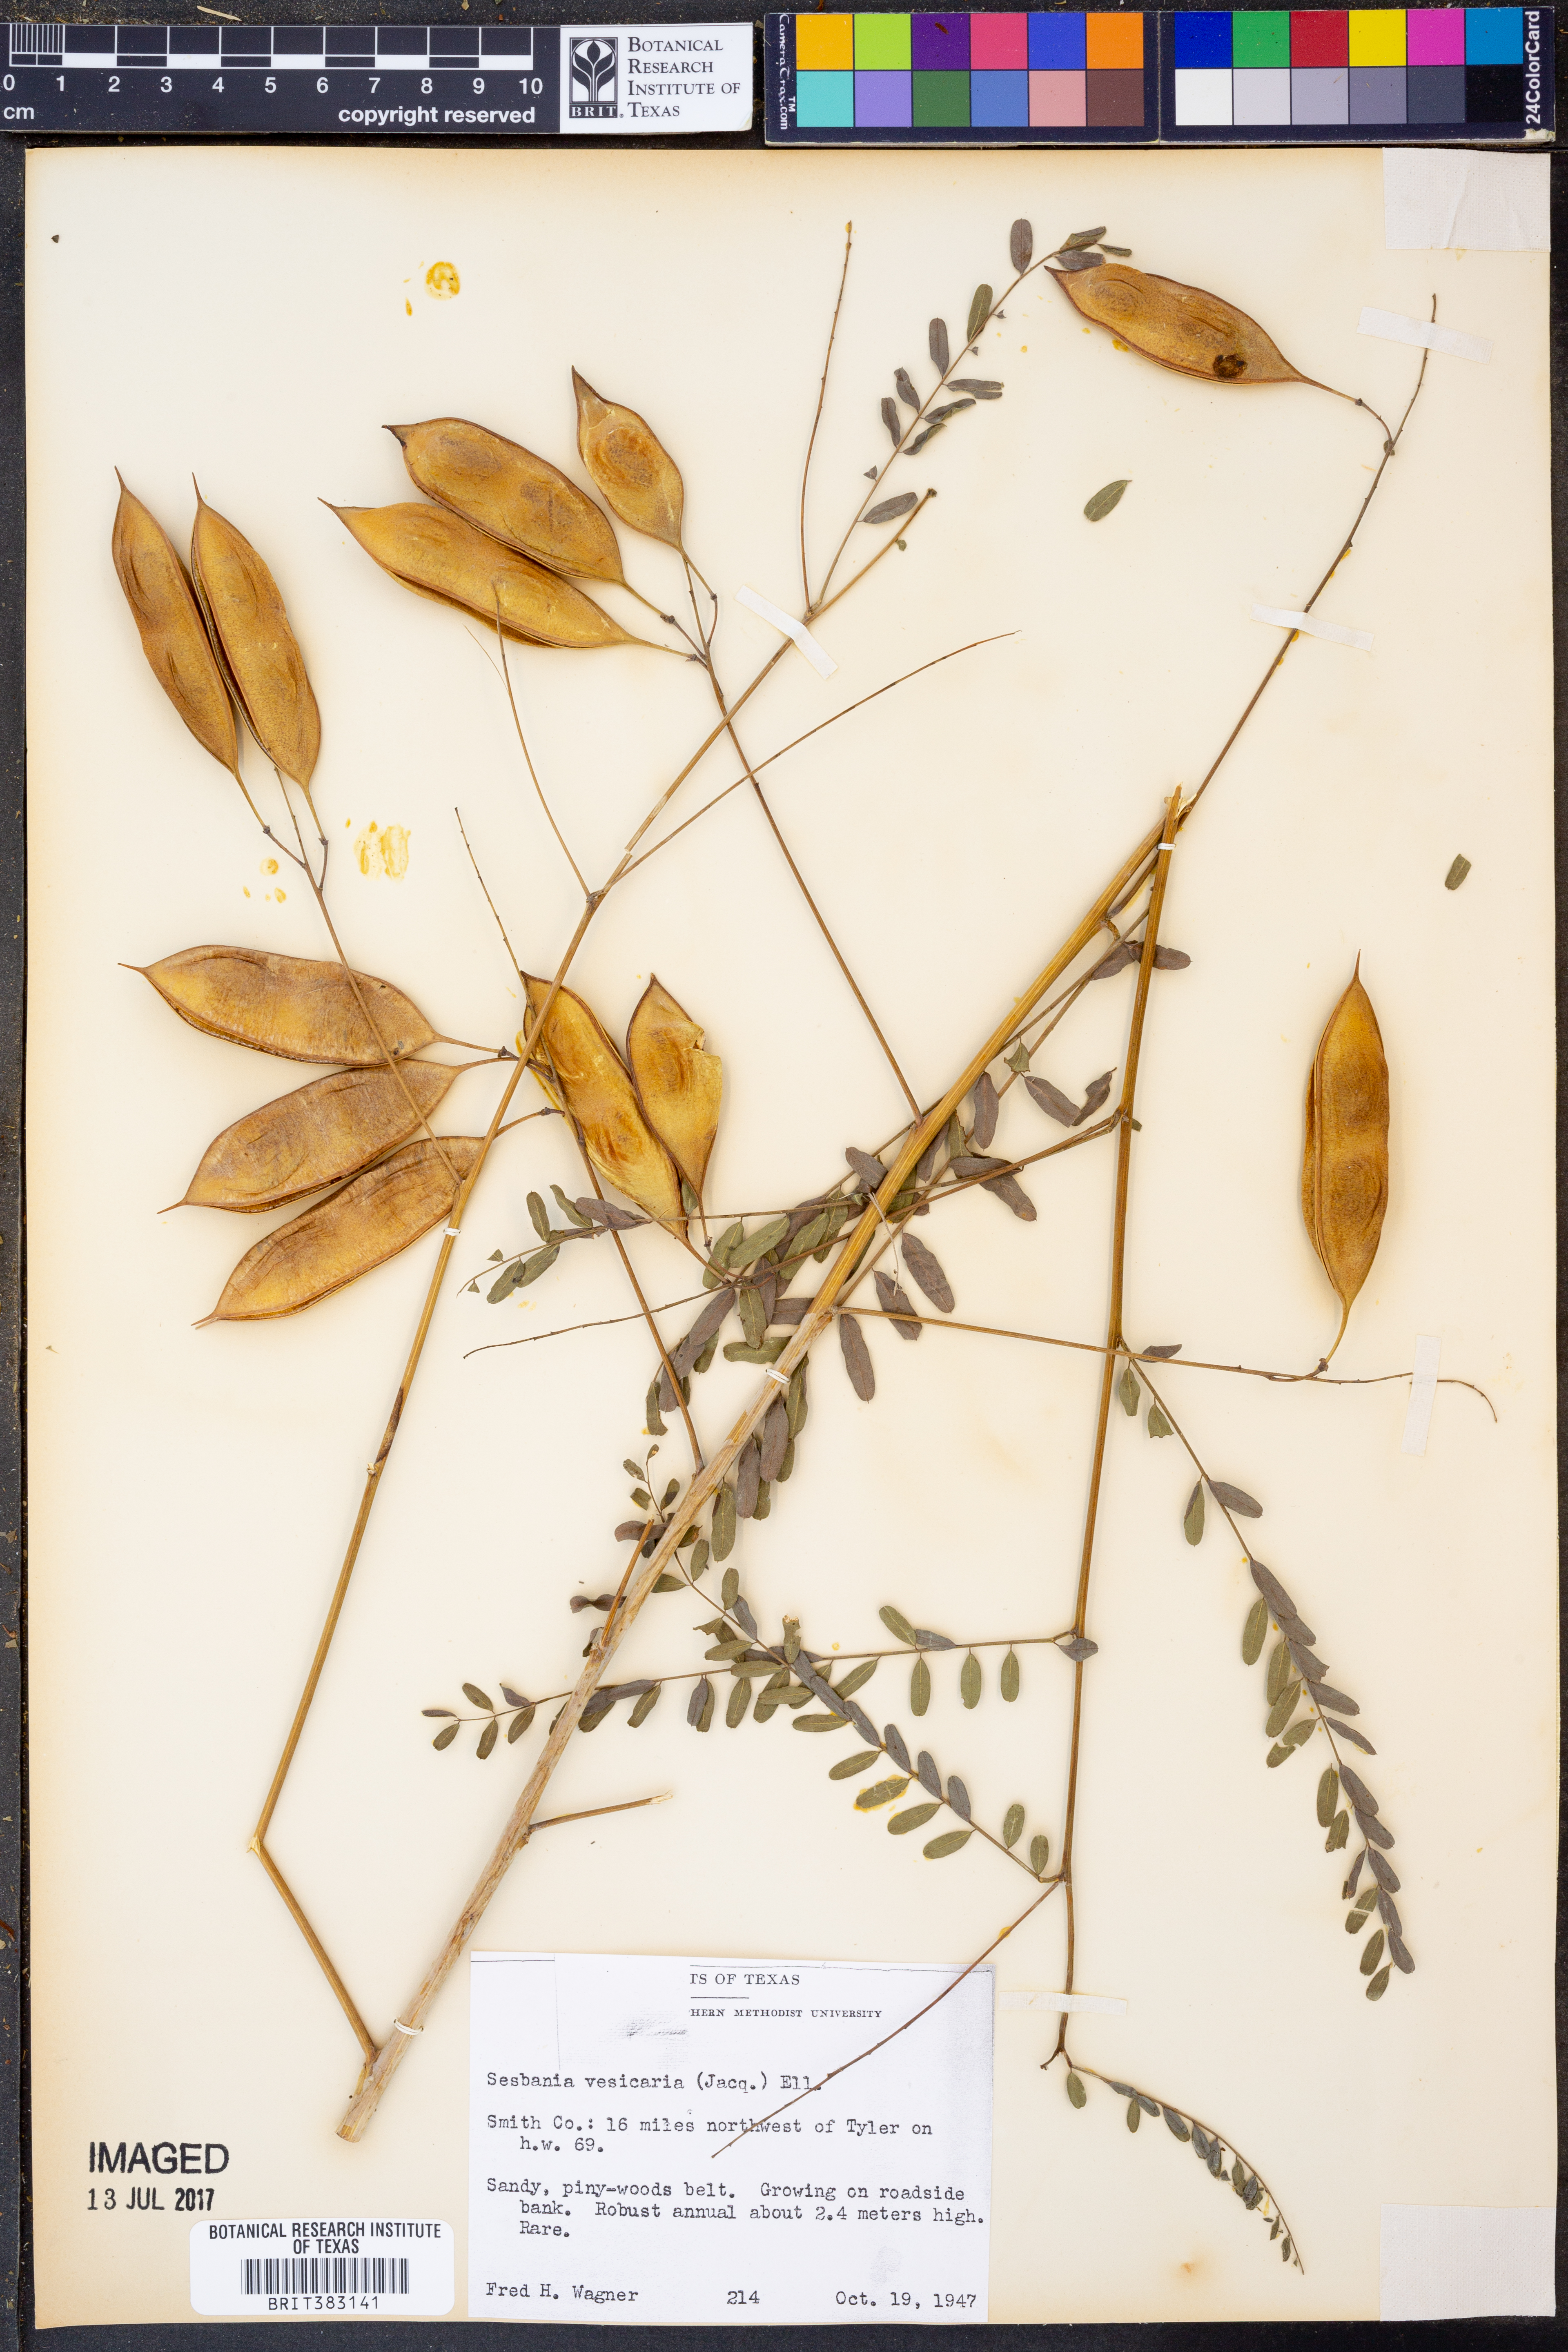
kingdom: Plantae
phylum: Tracheophyta
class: Magnoliopsida
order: Fabales
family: Fabaceae
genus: Sesbania
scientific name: Sesbania vesicaria
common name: Bagpod
